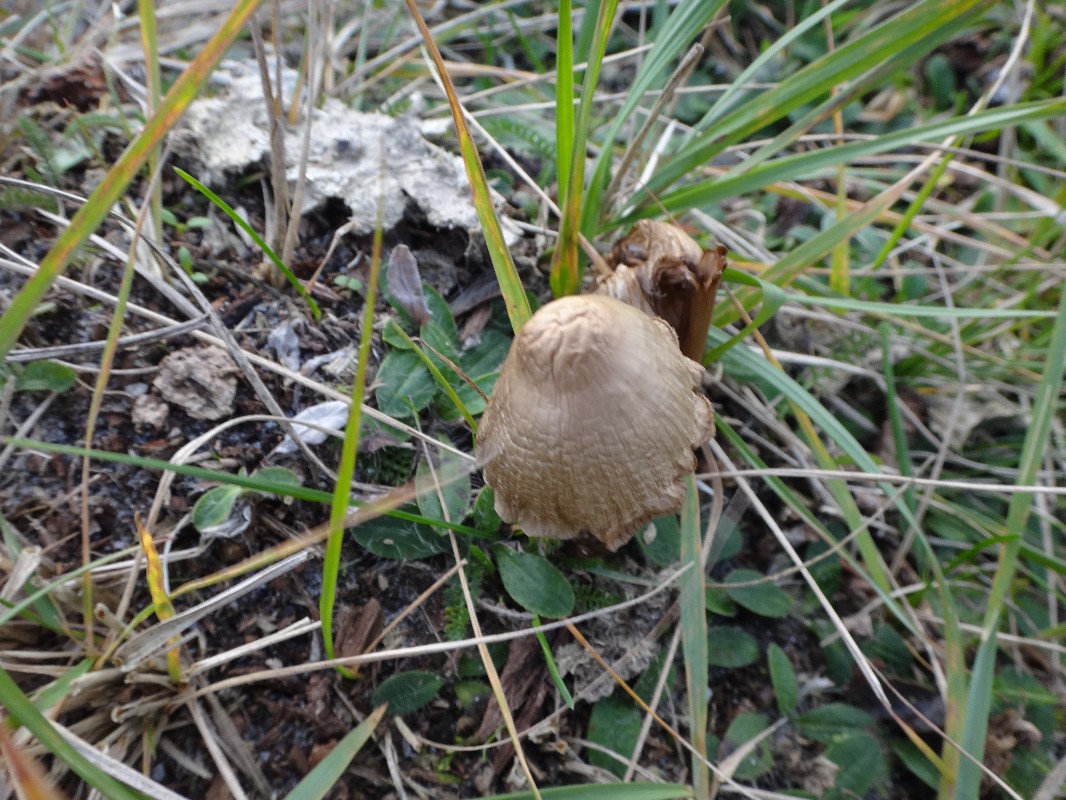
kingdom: Fungi
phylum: Basidiomycota
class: Agaricomycetes
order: Agaricales
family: Mycenaceae
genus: Mycena
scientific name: Mycena galericulata
